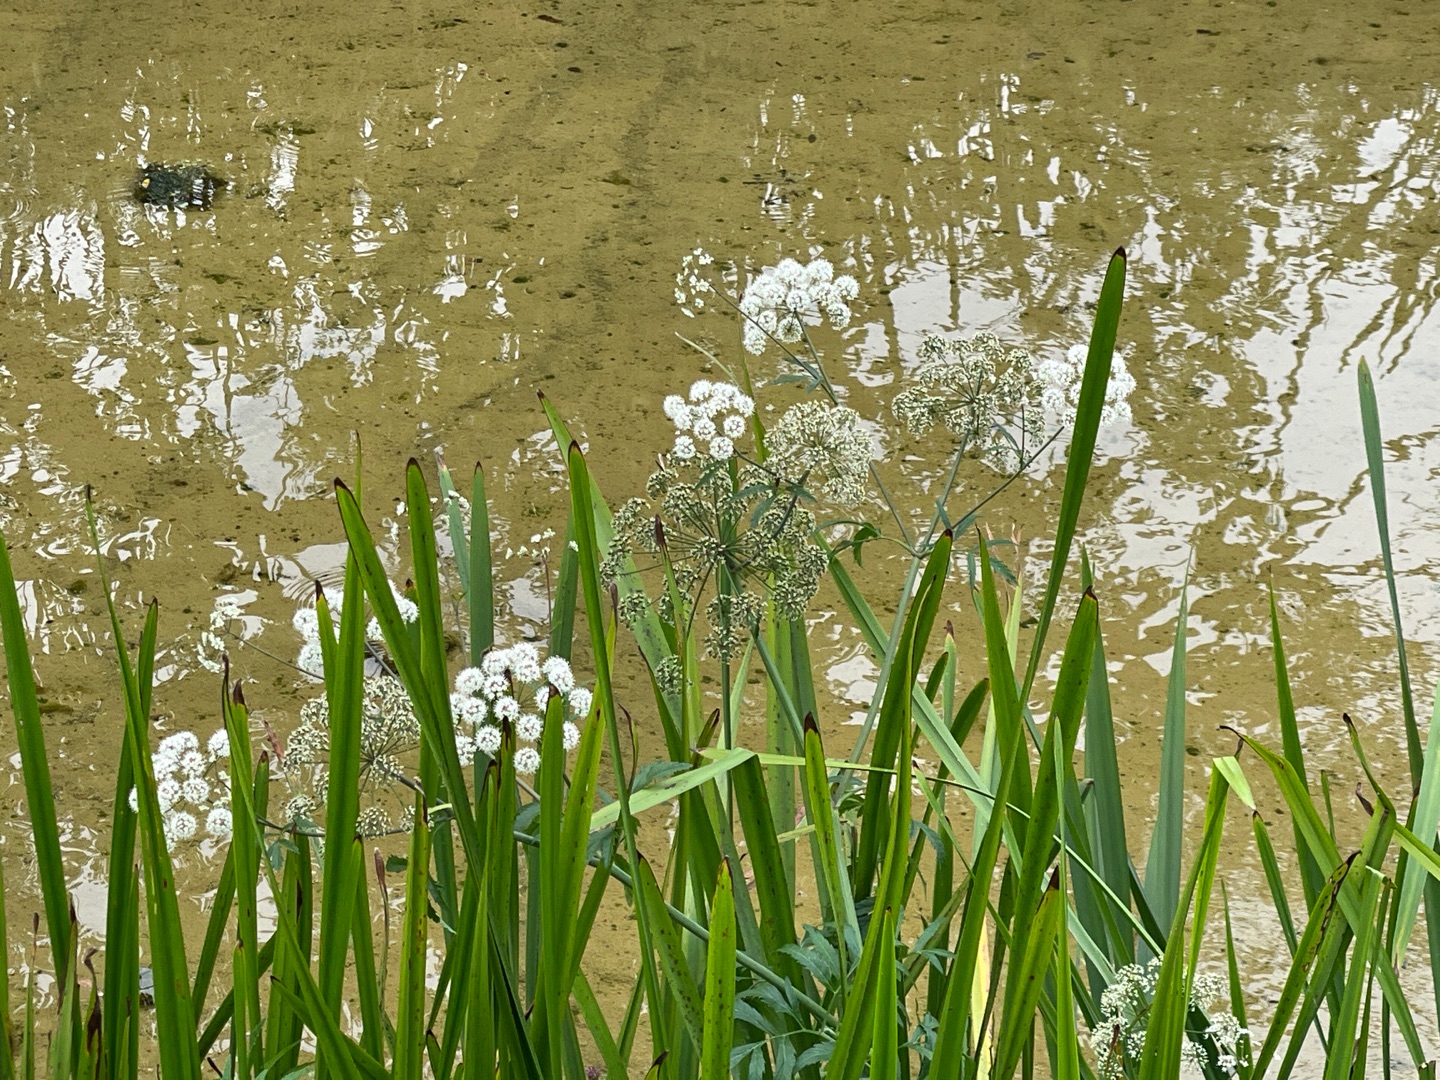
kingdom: Plantae
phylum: Tracheophyta
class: Magnoliopsida
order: Apiales
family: Apiaceae
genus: Cicuta
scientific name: Cicuta virosa
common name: Gifttyde
